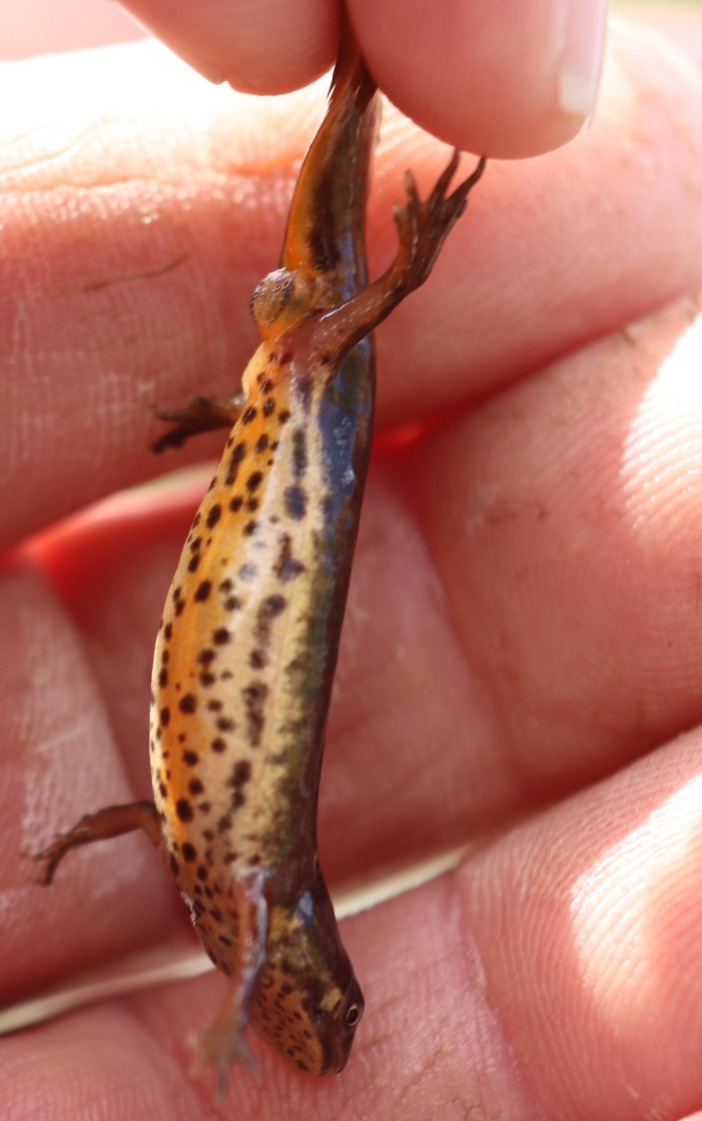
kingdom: Animalia
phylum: Chordata
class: Amphibia
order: Caudata
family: Salamandridae
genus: Lissotriton
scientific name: Lissotriton vulgaris
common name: Lille vandsalamander
